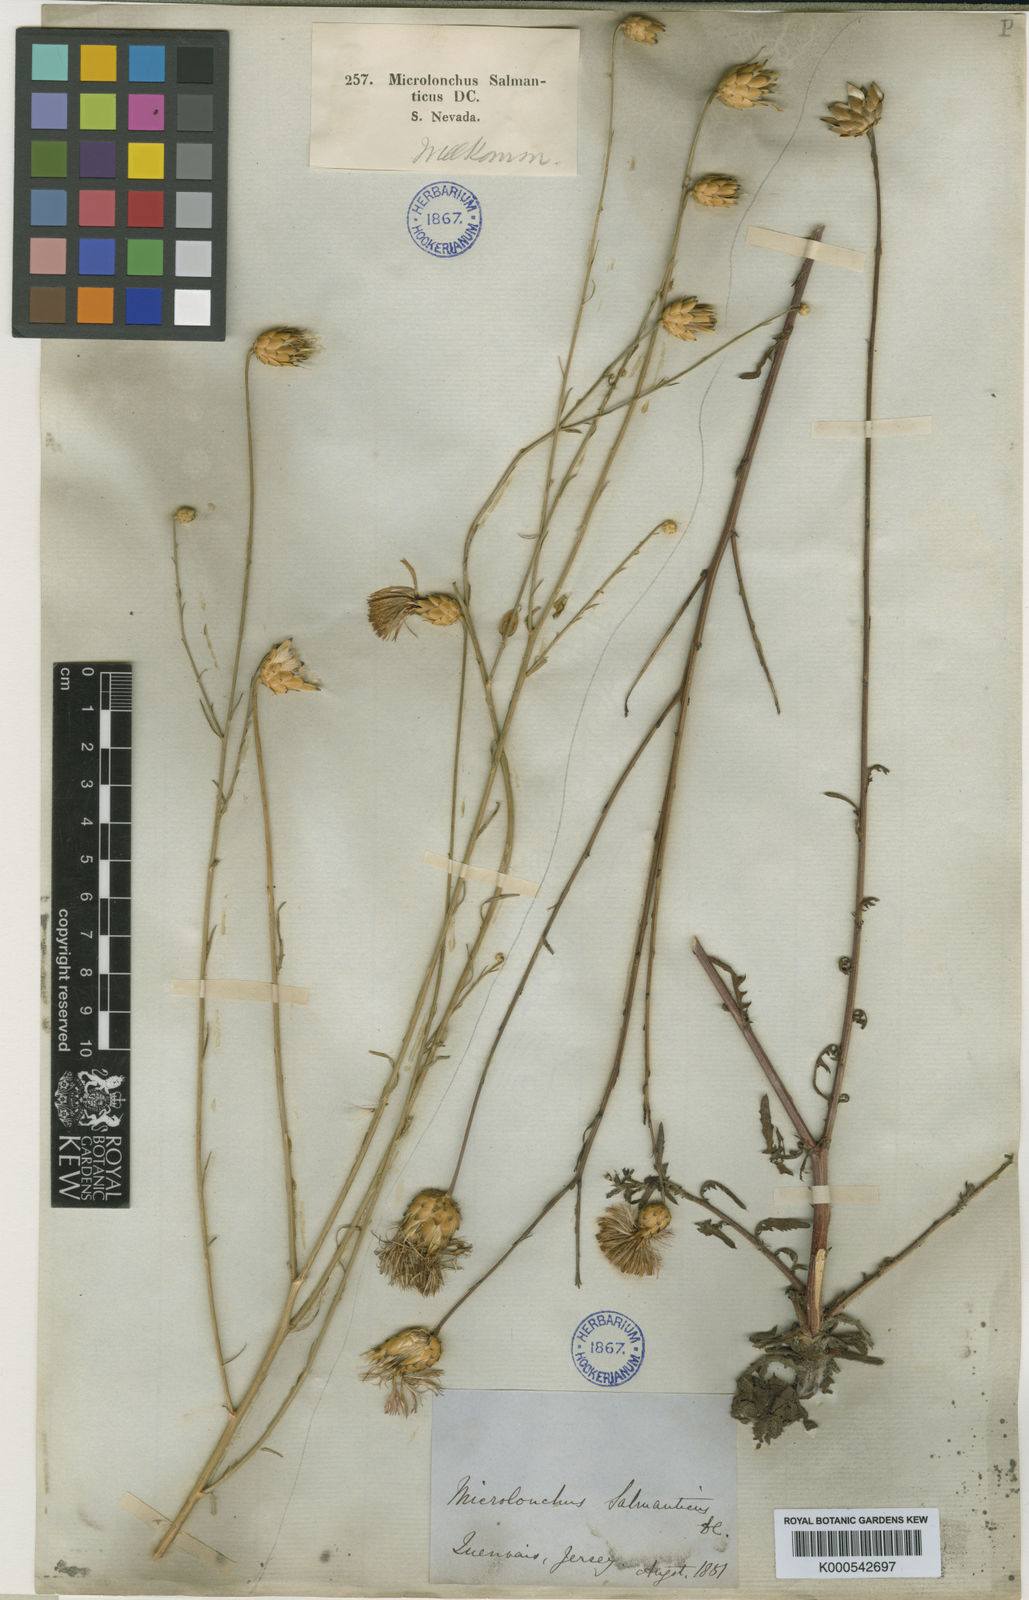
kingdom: Plantae
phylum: Tracheophyta
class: Magnoliopsida
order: Asterales
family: Asteraceae
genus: Mantisalca
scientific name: Mantisalca salmantica
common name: Dagger flower
